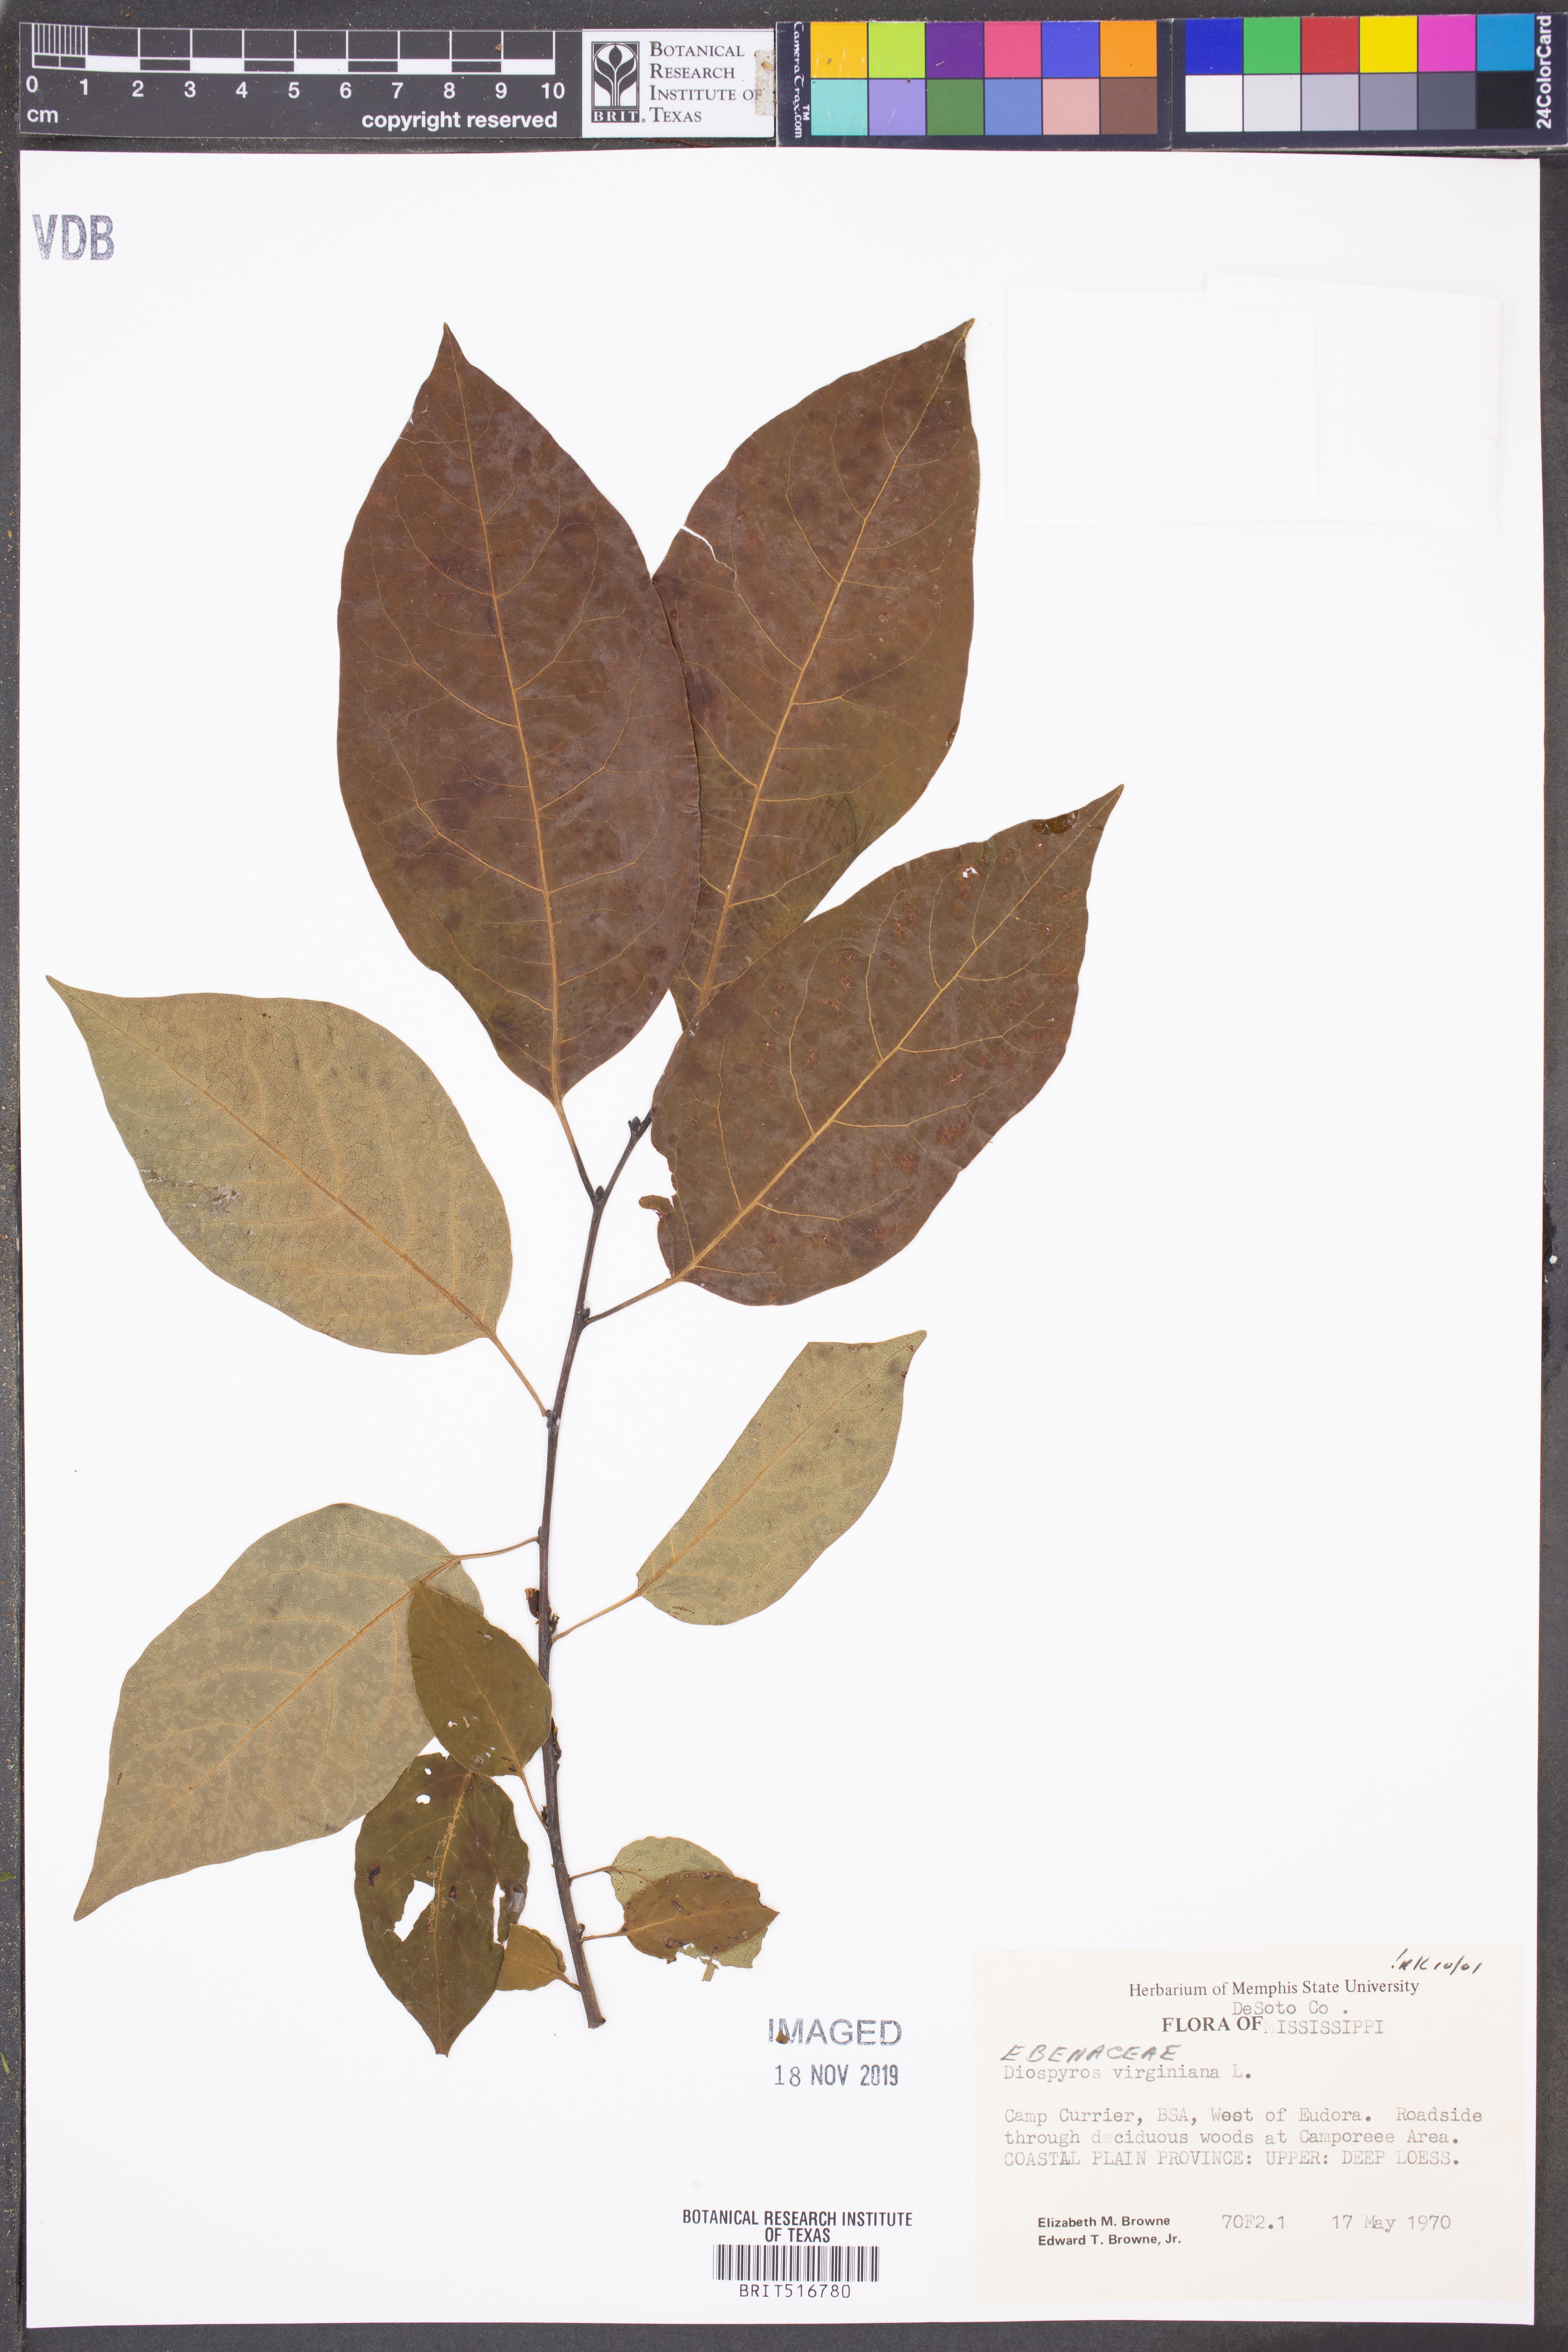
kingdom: Plantae
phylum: Tracheophyta
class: Magnoliopsida
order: Ericales
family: Ebenaceae
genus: Diospyros
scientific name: Diospyros virginiana
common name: Persimmon
